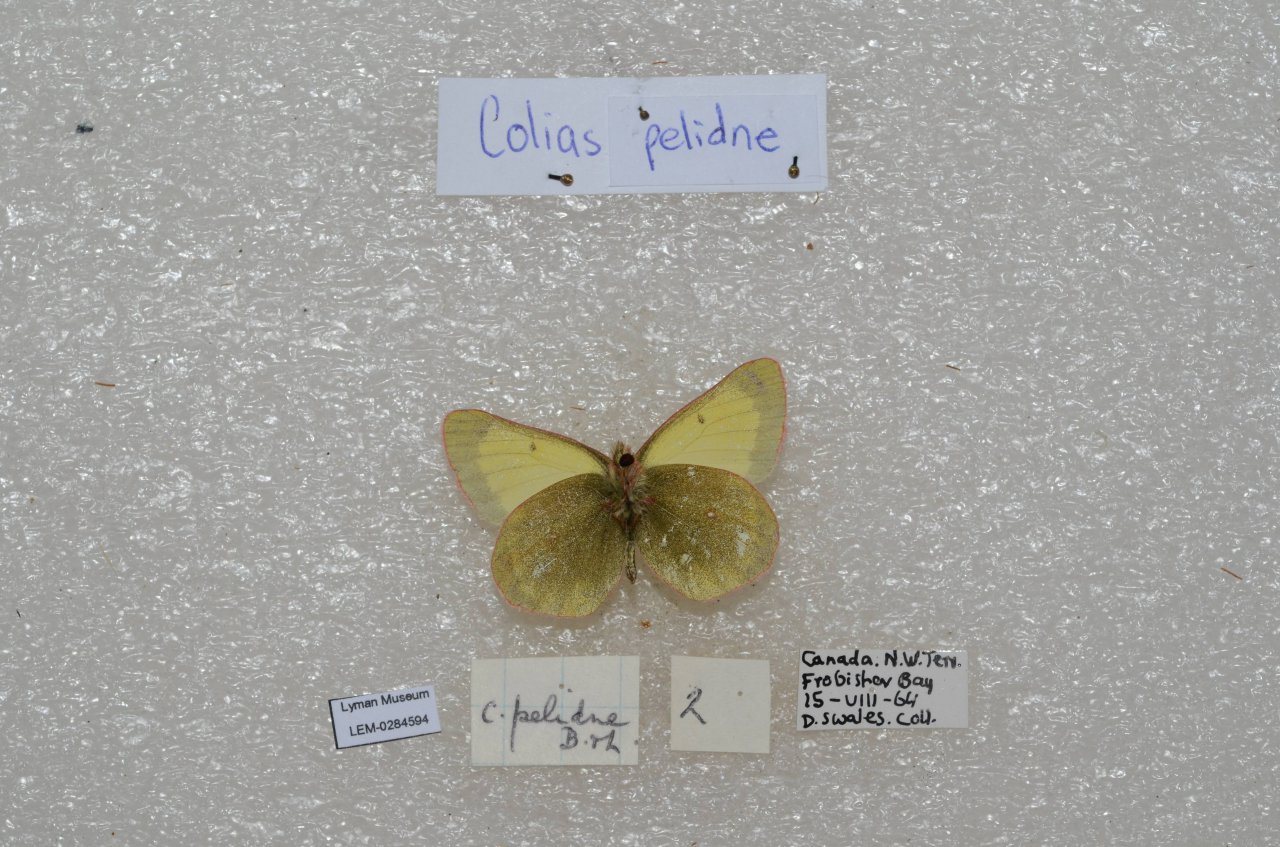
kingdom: Animalia
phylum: Arthropoda
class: Insecta
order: Lepidoptera
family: Pieridae
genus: Colias
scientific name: Colias pelidne
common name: Pelidne Sulphur
